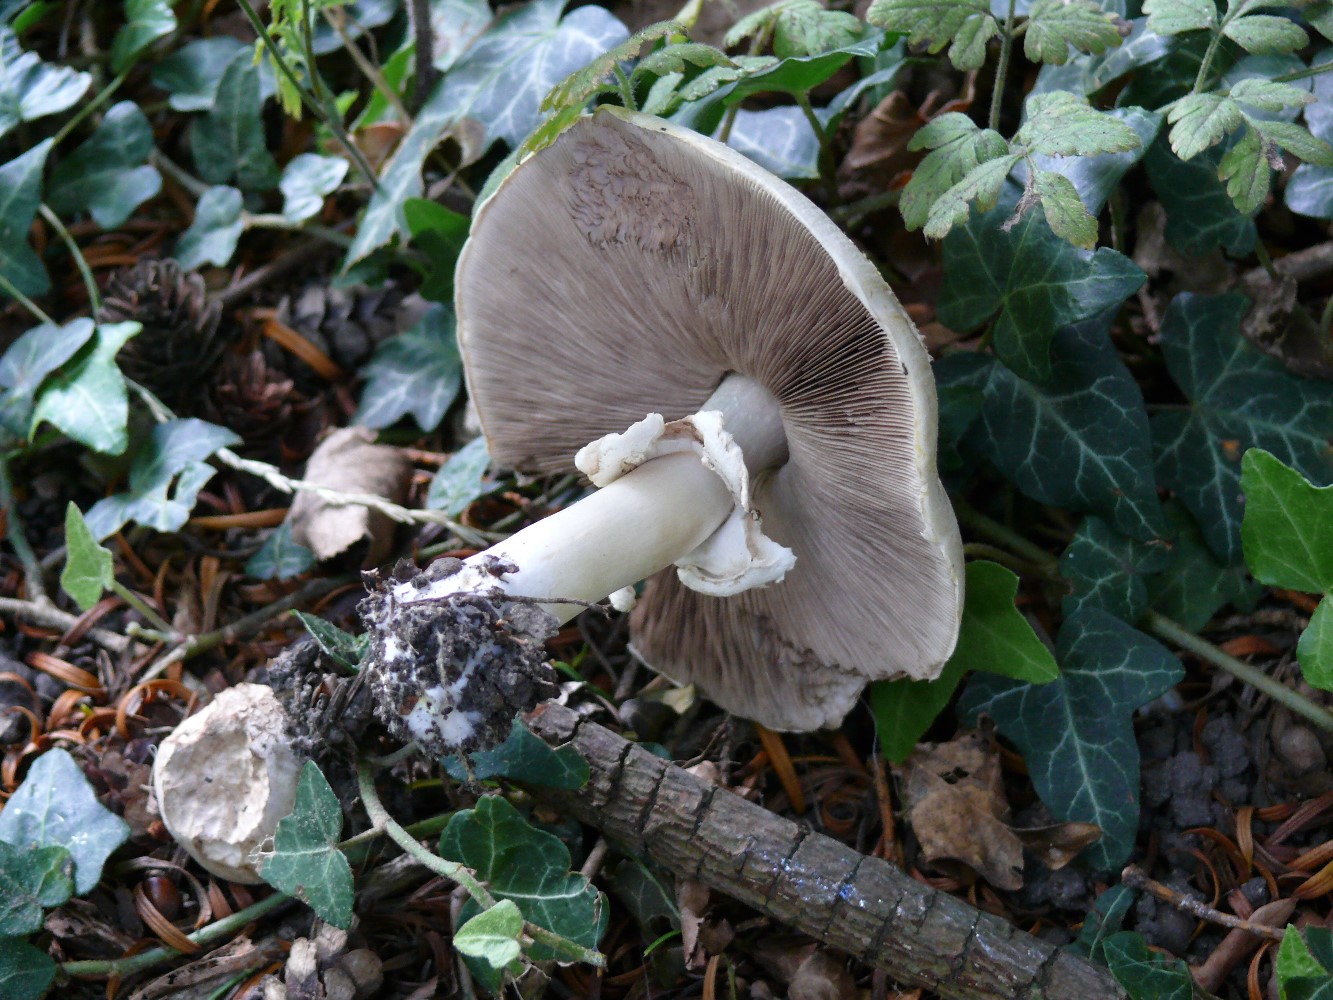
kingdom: Fungi
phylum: Basidiomycota
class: Agaricomycetes
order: Agaricales
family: Agaricaceae
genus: Agaricus
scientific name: Agaricus xanthodermus
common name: karbol-champignon
